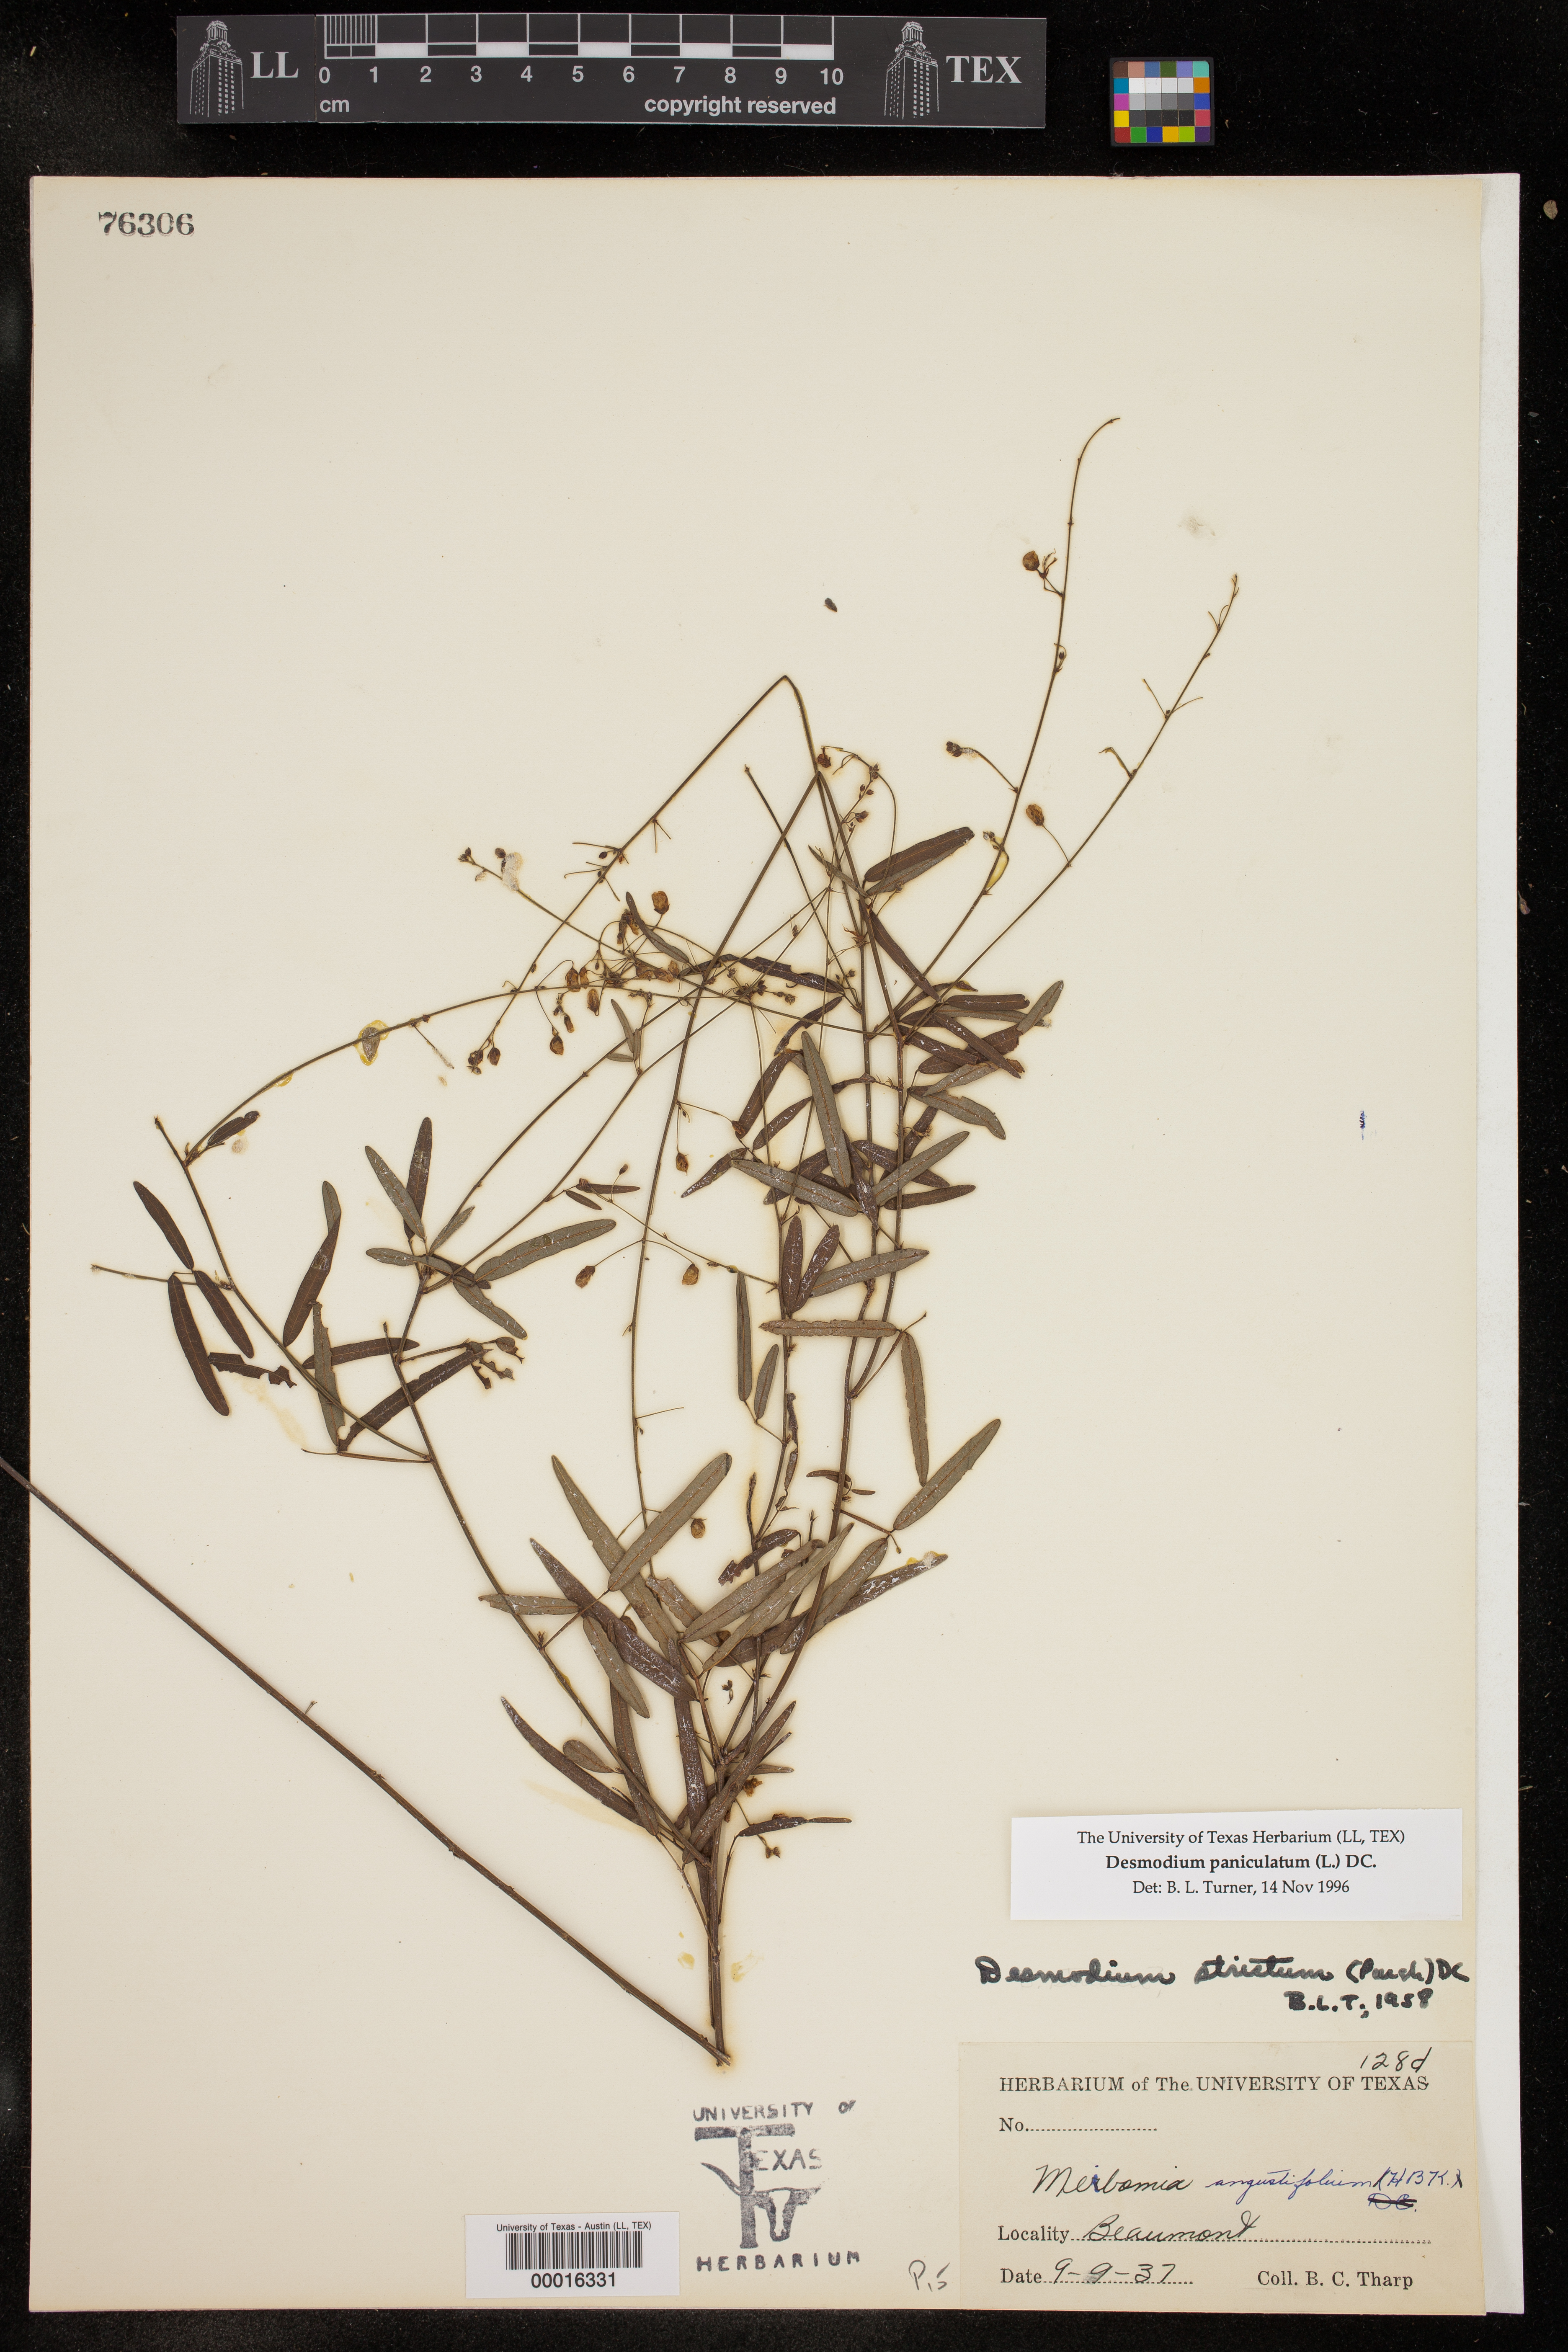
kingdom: Plantae
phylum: Tracheophyta
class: Magnoliopsida
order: Fabales
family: Fabaceae
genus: Desmodium
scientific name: Desmodium paniculatum
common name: Panicled tick-clover
